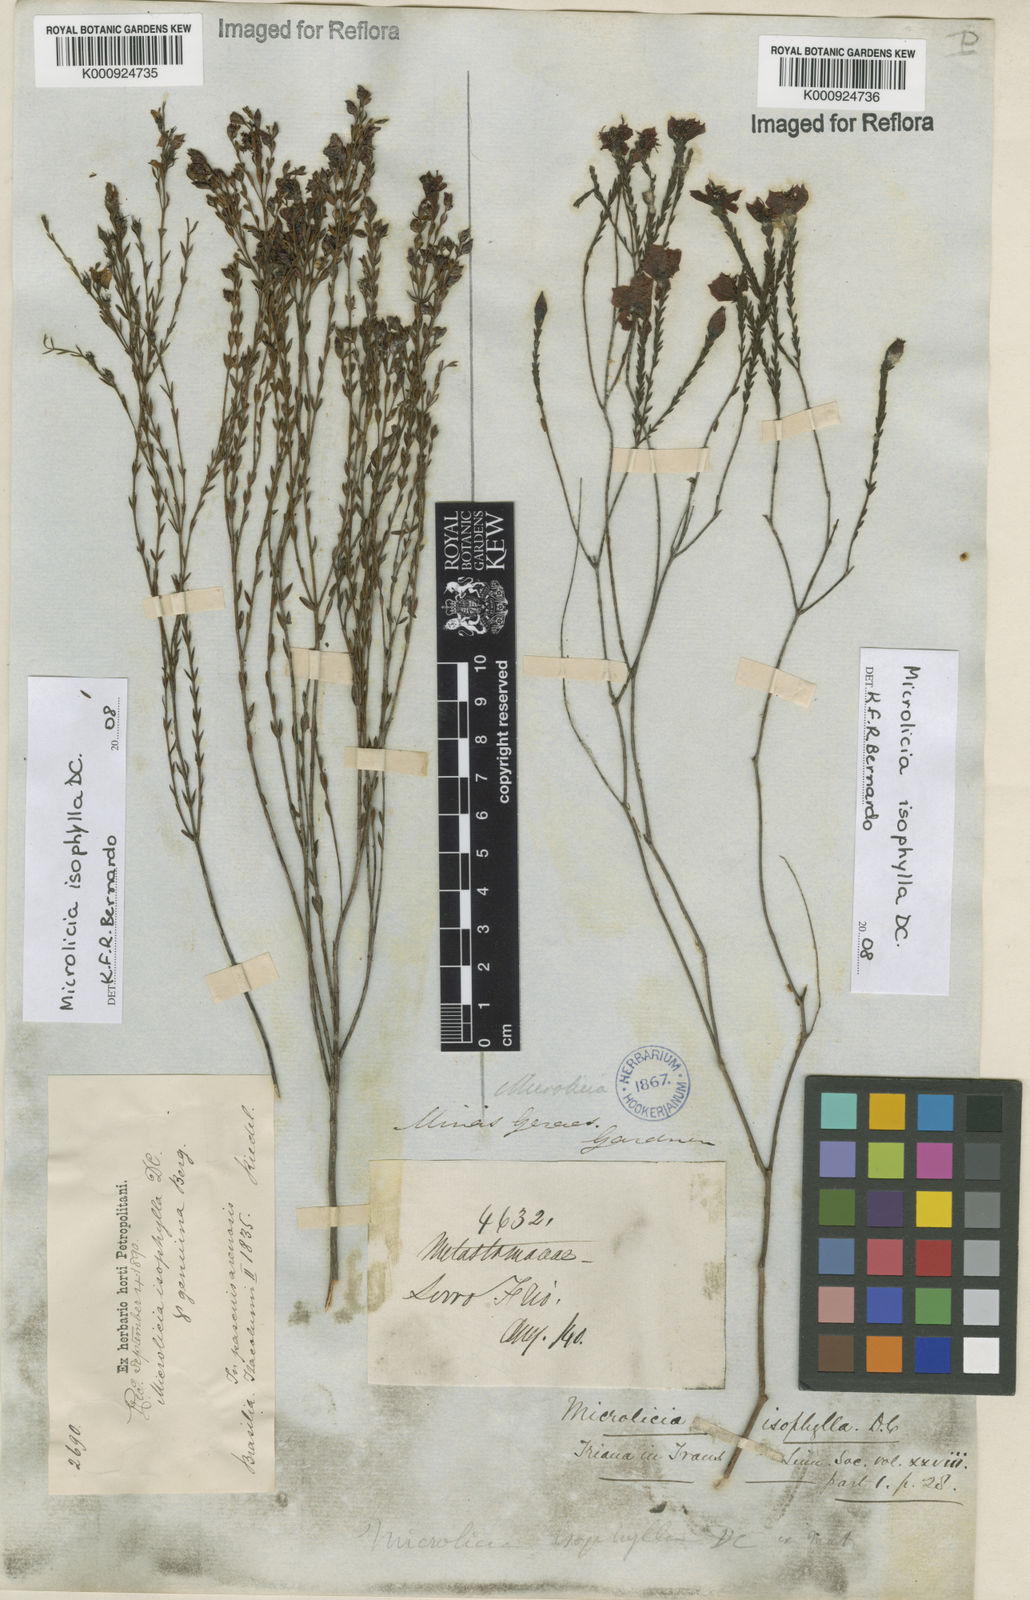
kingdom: Plantae
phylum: Tracheophyta
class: Magnoliopsida
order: Myrtales
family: Melastomataceae
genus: Microlicia
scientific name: Microlicia isophylla
